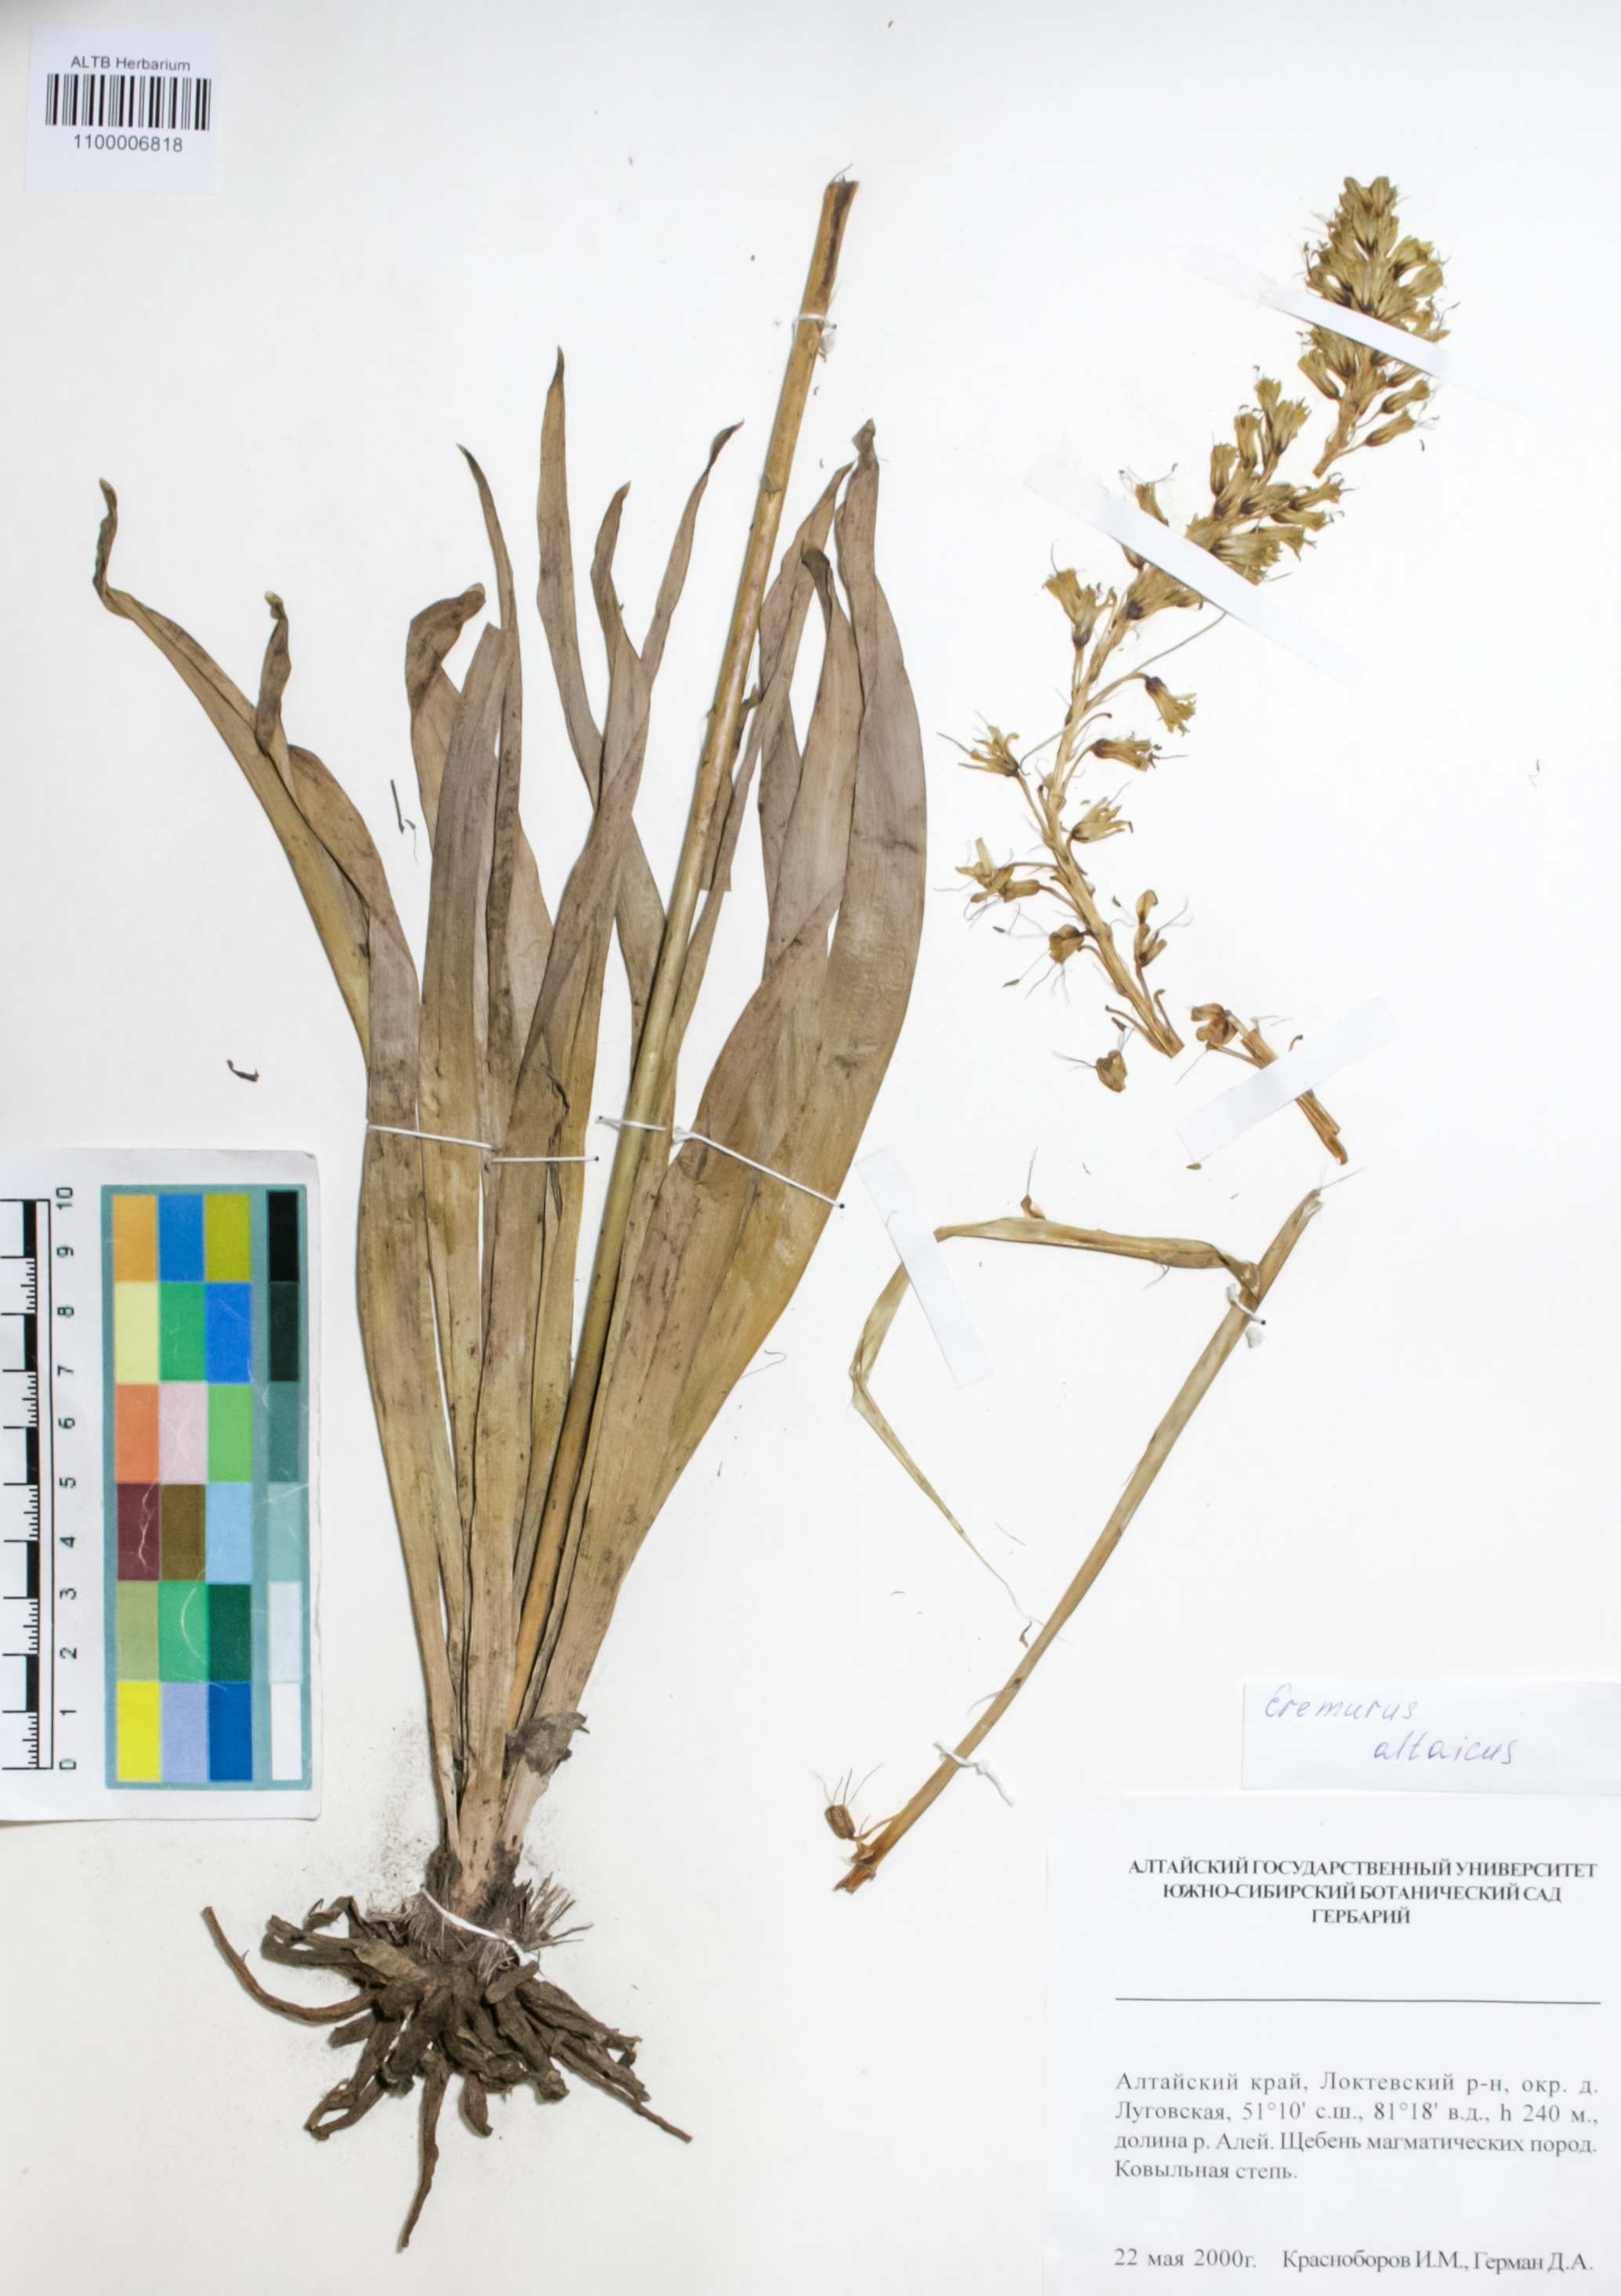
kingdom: Plantae
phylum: Tracheophyta
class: Liliopsida
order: Asparagales
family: Asphodelaceae
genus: Eremurus
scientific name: Eremurus altaicus
